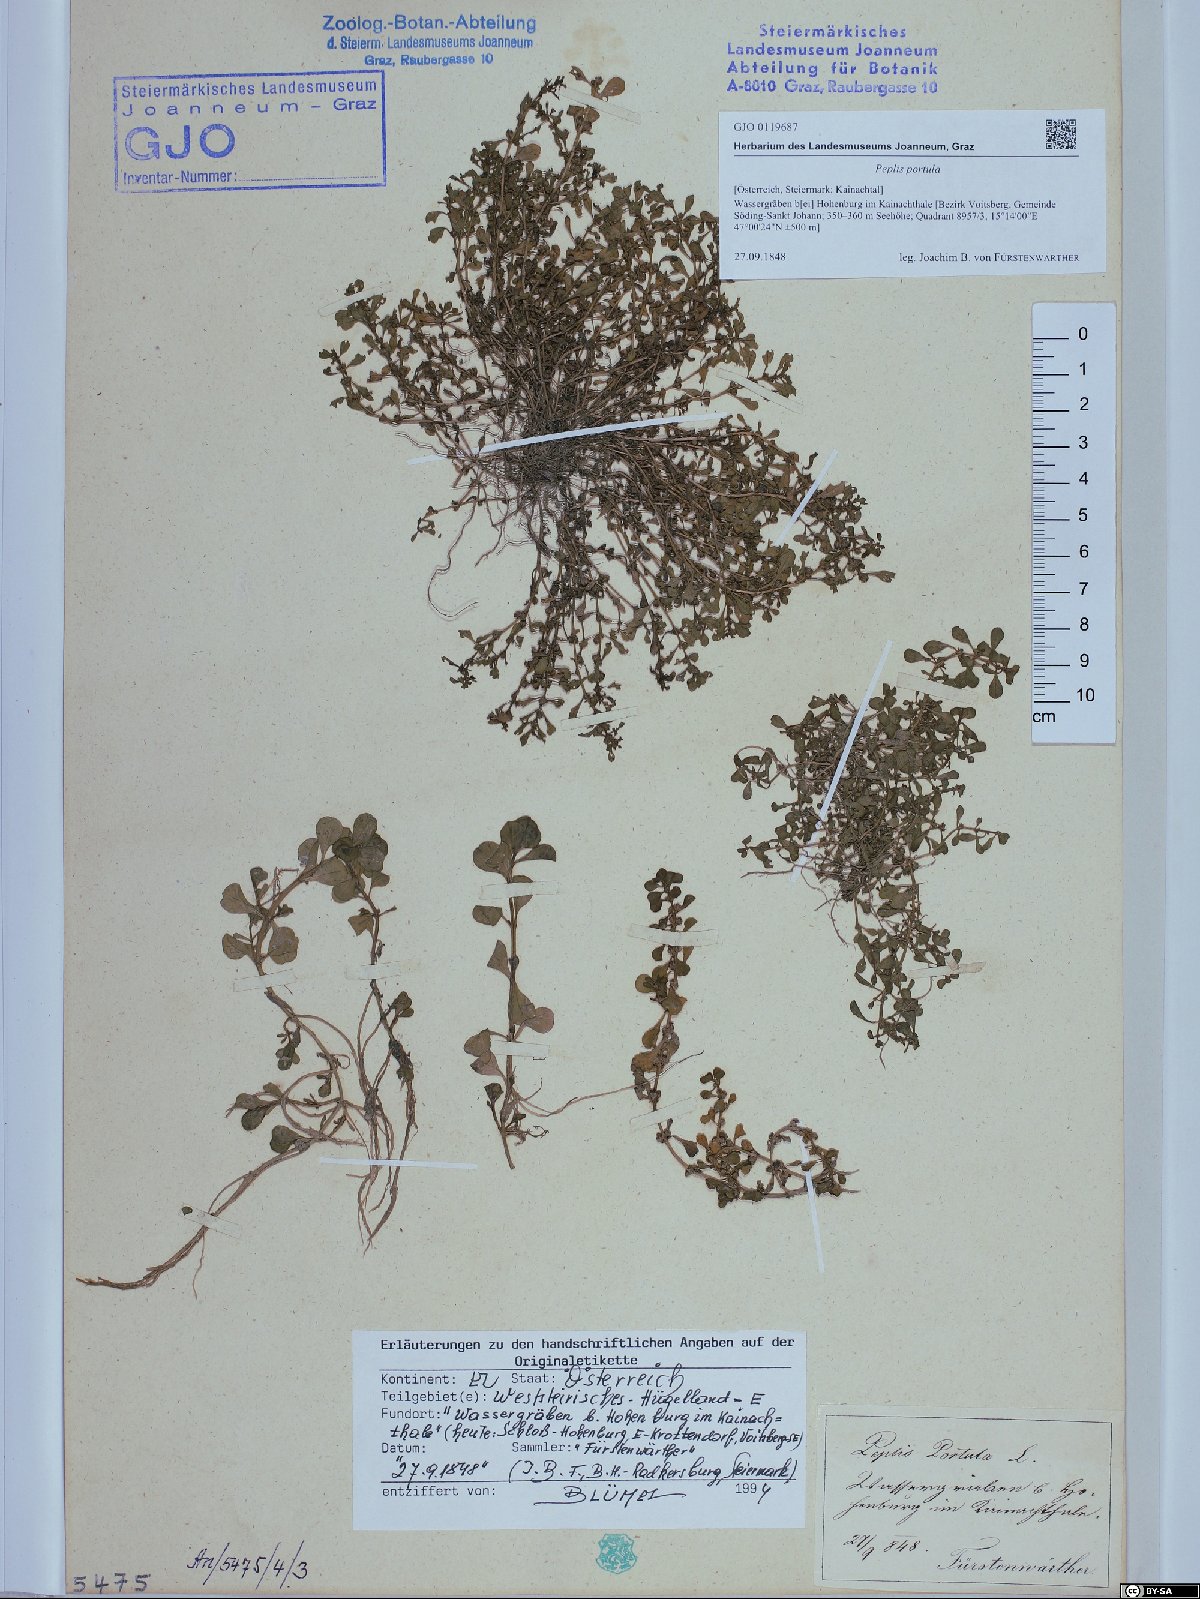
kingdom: Plantae
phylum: Tracheophyta
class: Magnoliopsida
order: Myrtales
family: Lythraceae
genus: Lythrum
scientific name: Lythrum portula
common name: Water purslane
